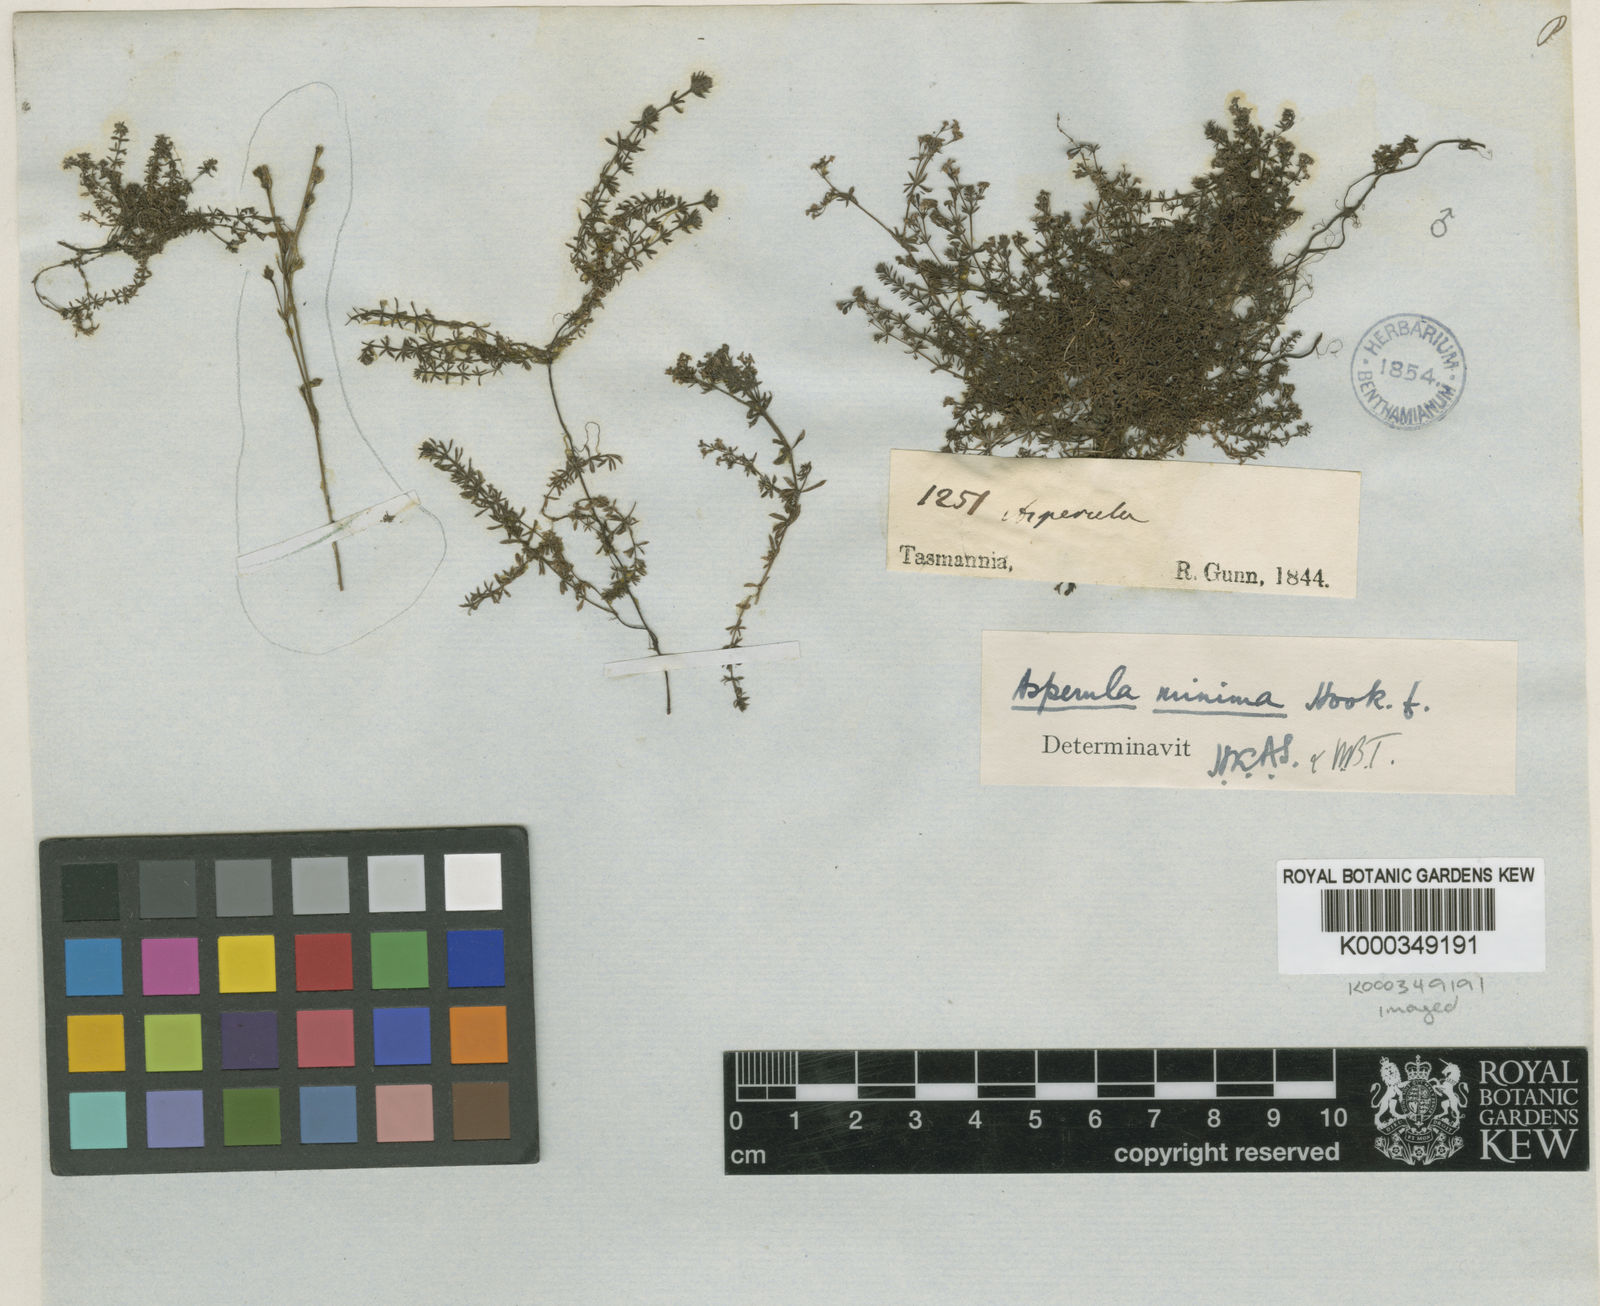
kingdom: Plantae
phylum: Tracheophyta
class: Magnoliopsida
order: Gentianales
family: Rubiaceae
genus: Asperula
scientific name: Asperula pusilla
